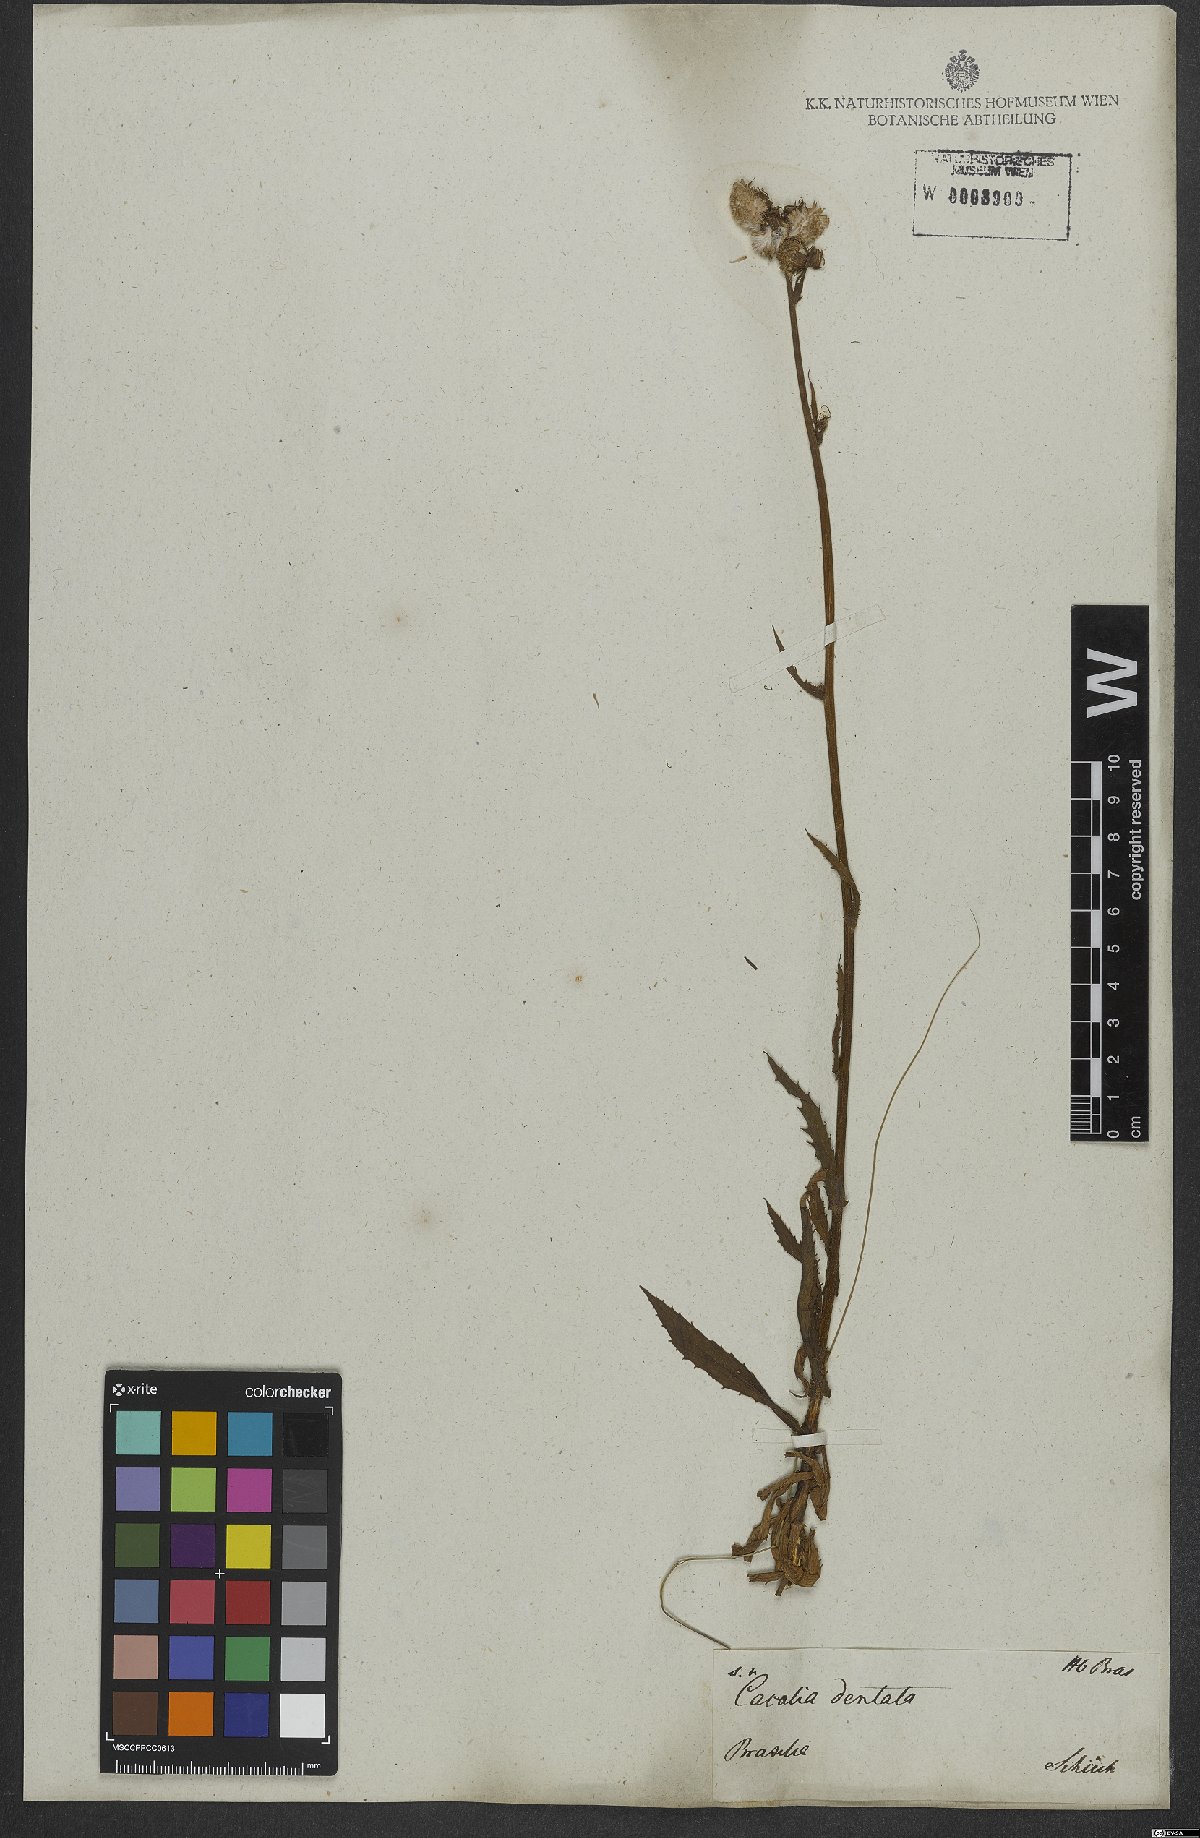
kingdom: Plantae
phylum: Tracheophyta
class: Magnoliopsida
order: Asterales
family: Asteraceae
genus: Pseudogynoxys
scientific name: Pseudogynoxys pohlii
